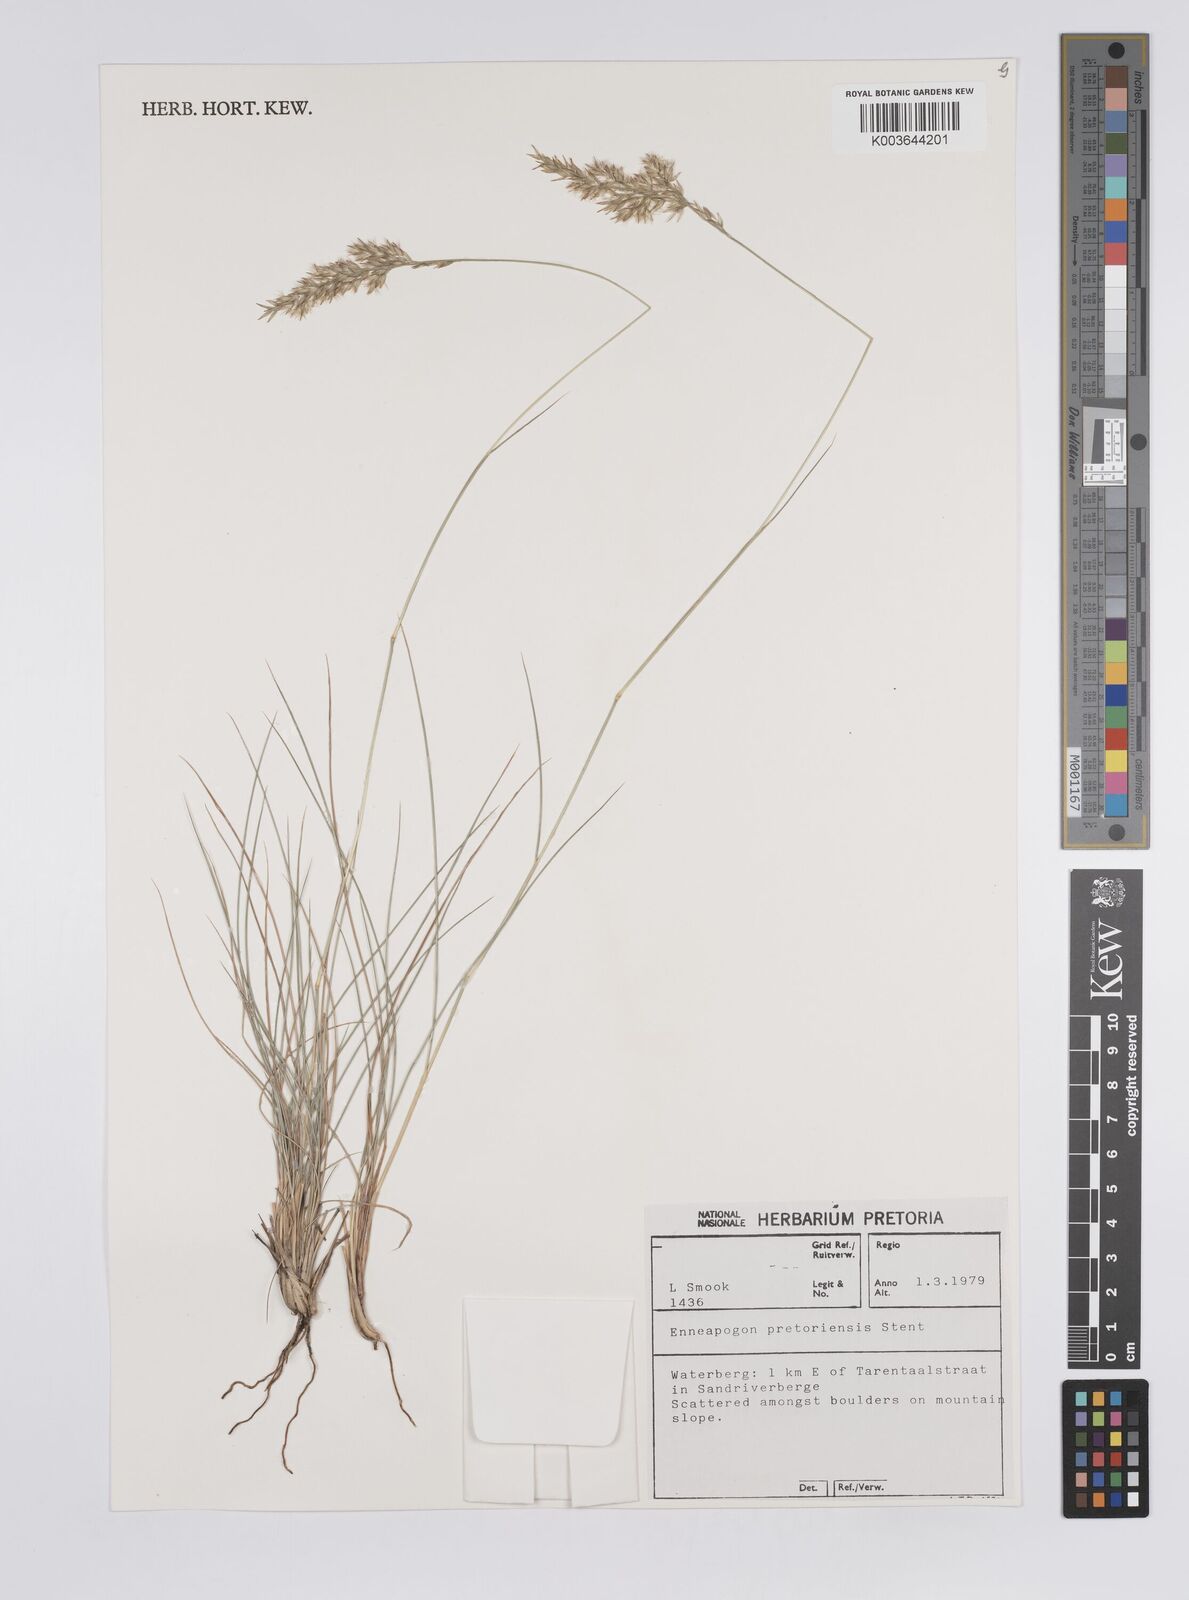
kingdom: Plantae
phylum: Tracheophyta
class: Liliopsida
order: Poales
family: Poaceae
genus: Enneapogon
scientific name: Enneapogon pretoriensis
